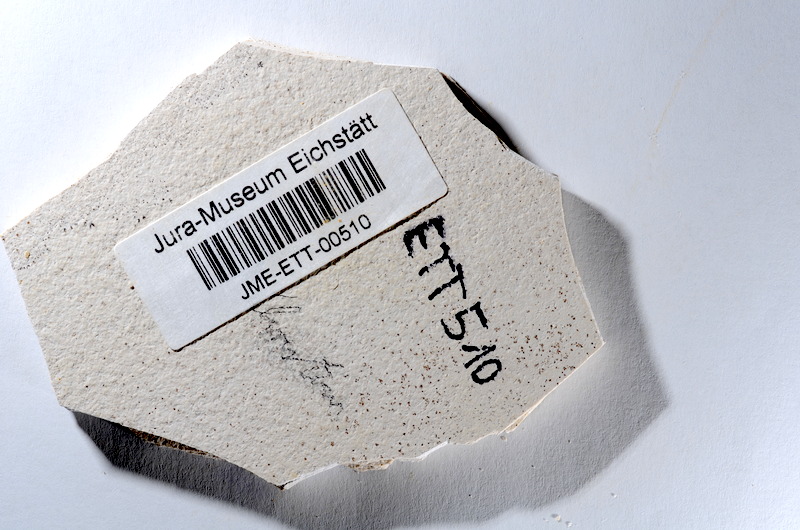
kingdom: Animalia
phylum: Chordata
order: Salmoniformes
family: Orthogonikleithridae
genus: Orthogonikleithrus
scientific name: Orthogonikleithrus hoelli
